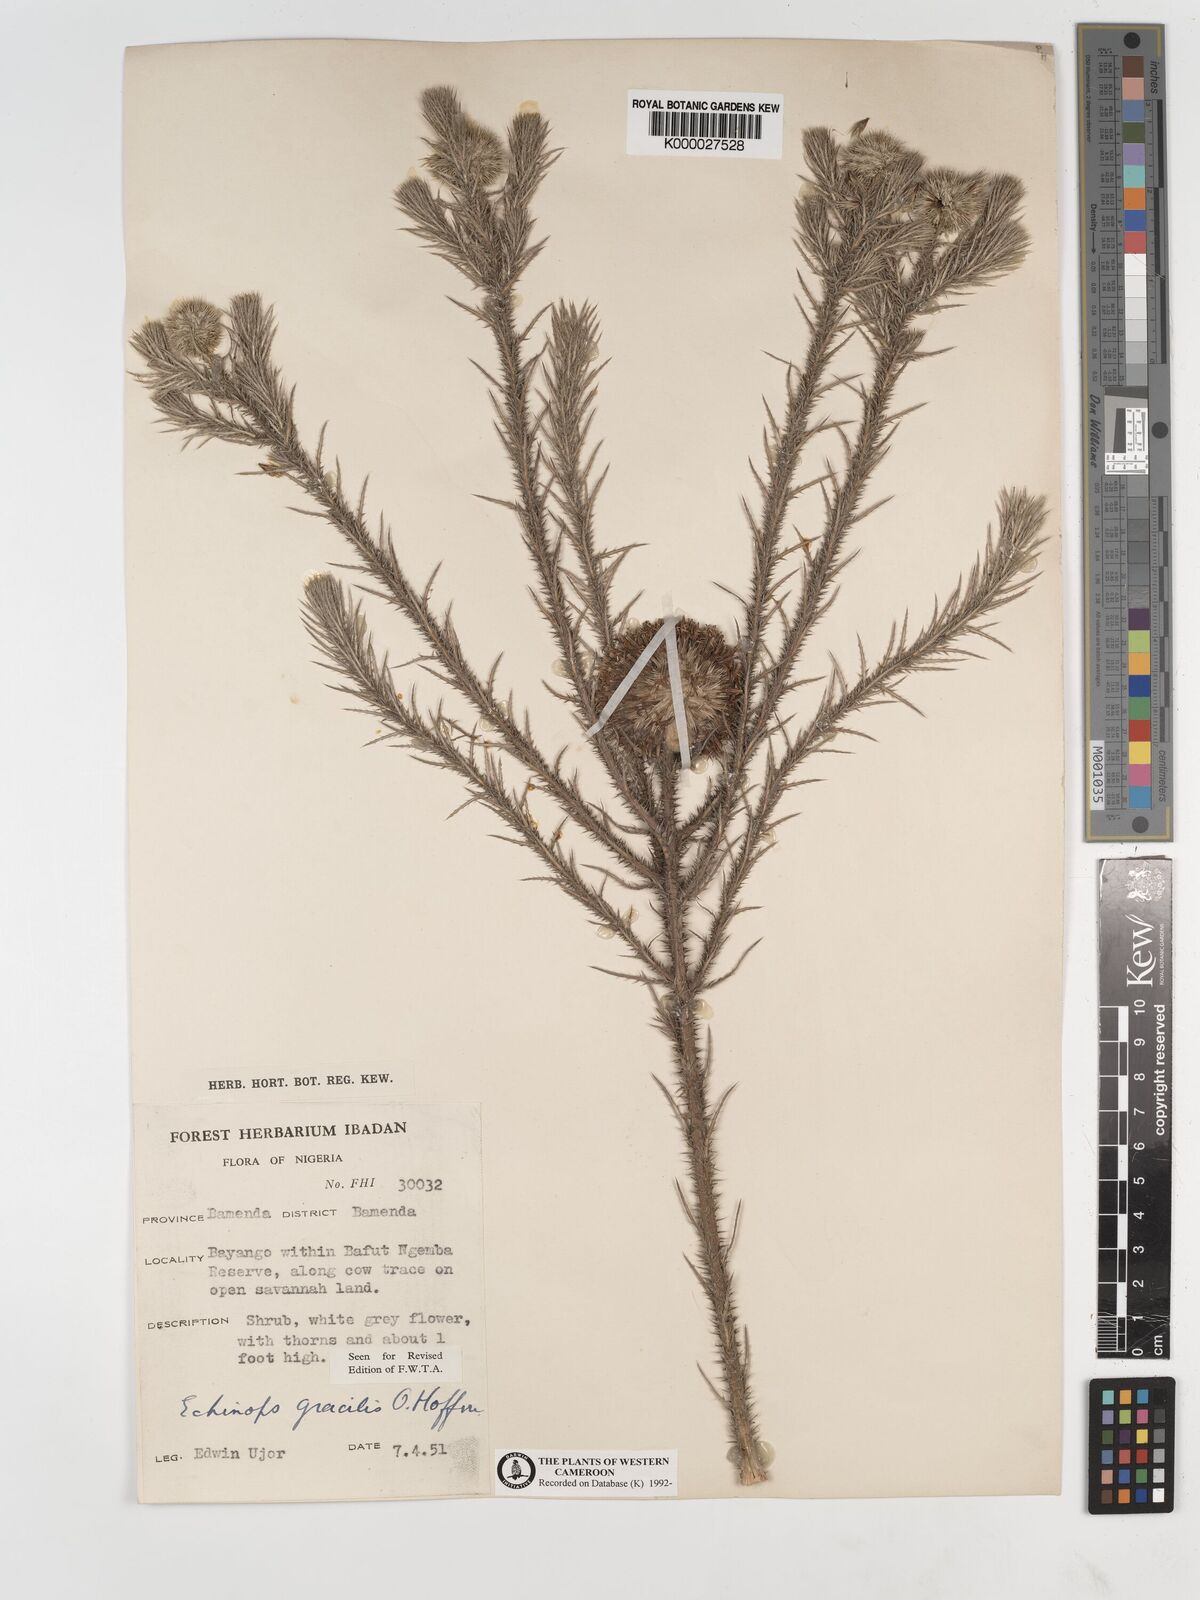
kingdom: Plantae
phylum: Tracheophyta
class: Magnoliopsida
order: Asterales
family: Asteraceae
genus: Echinops
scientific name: Echinops gracilis
